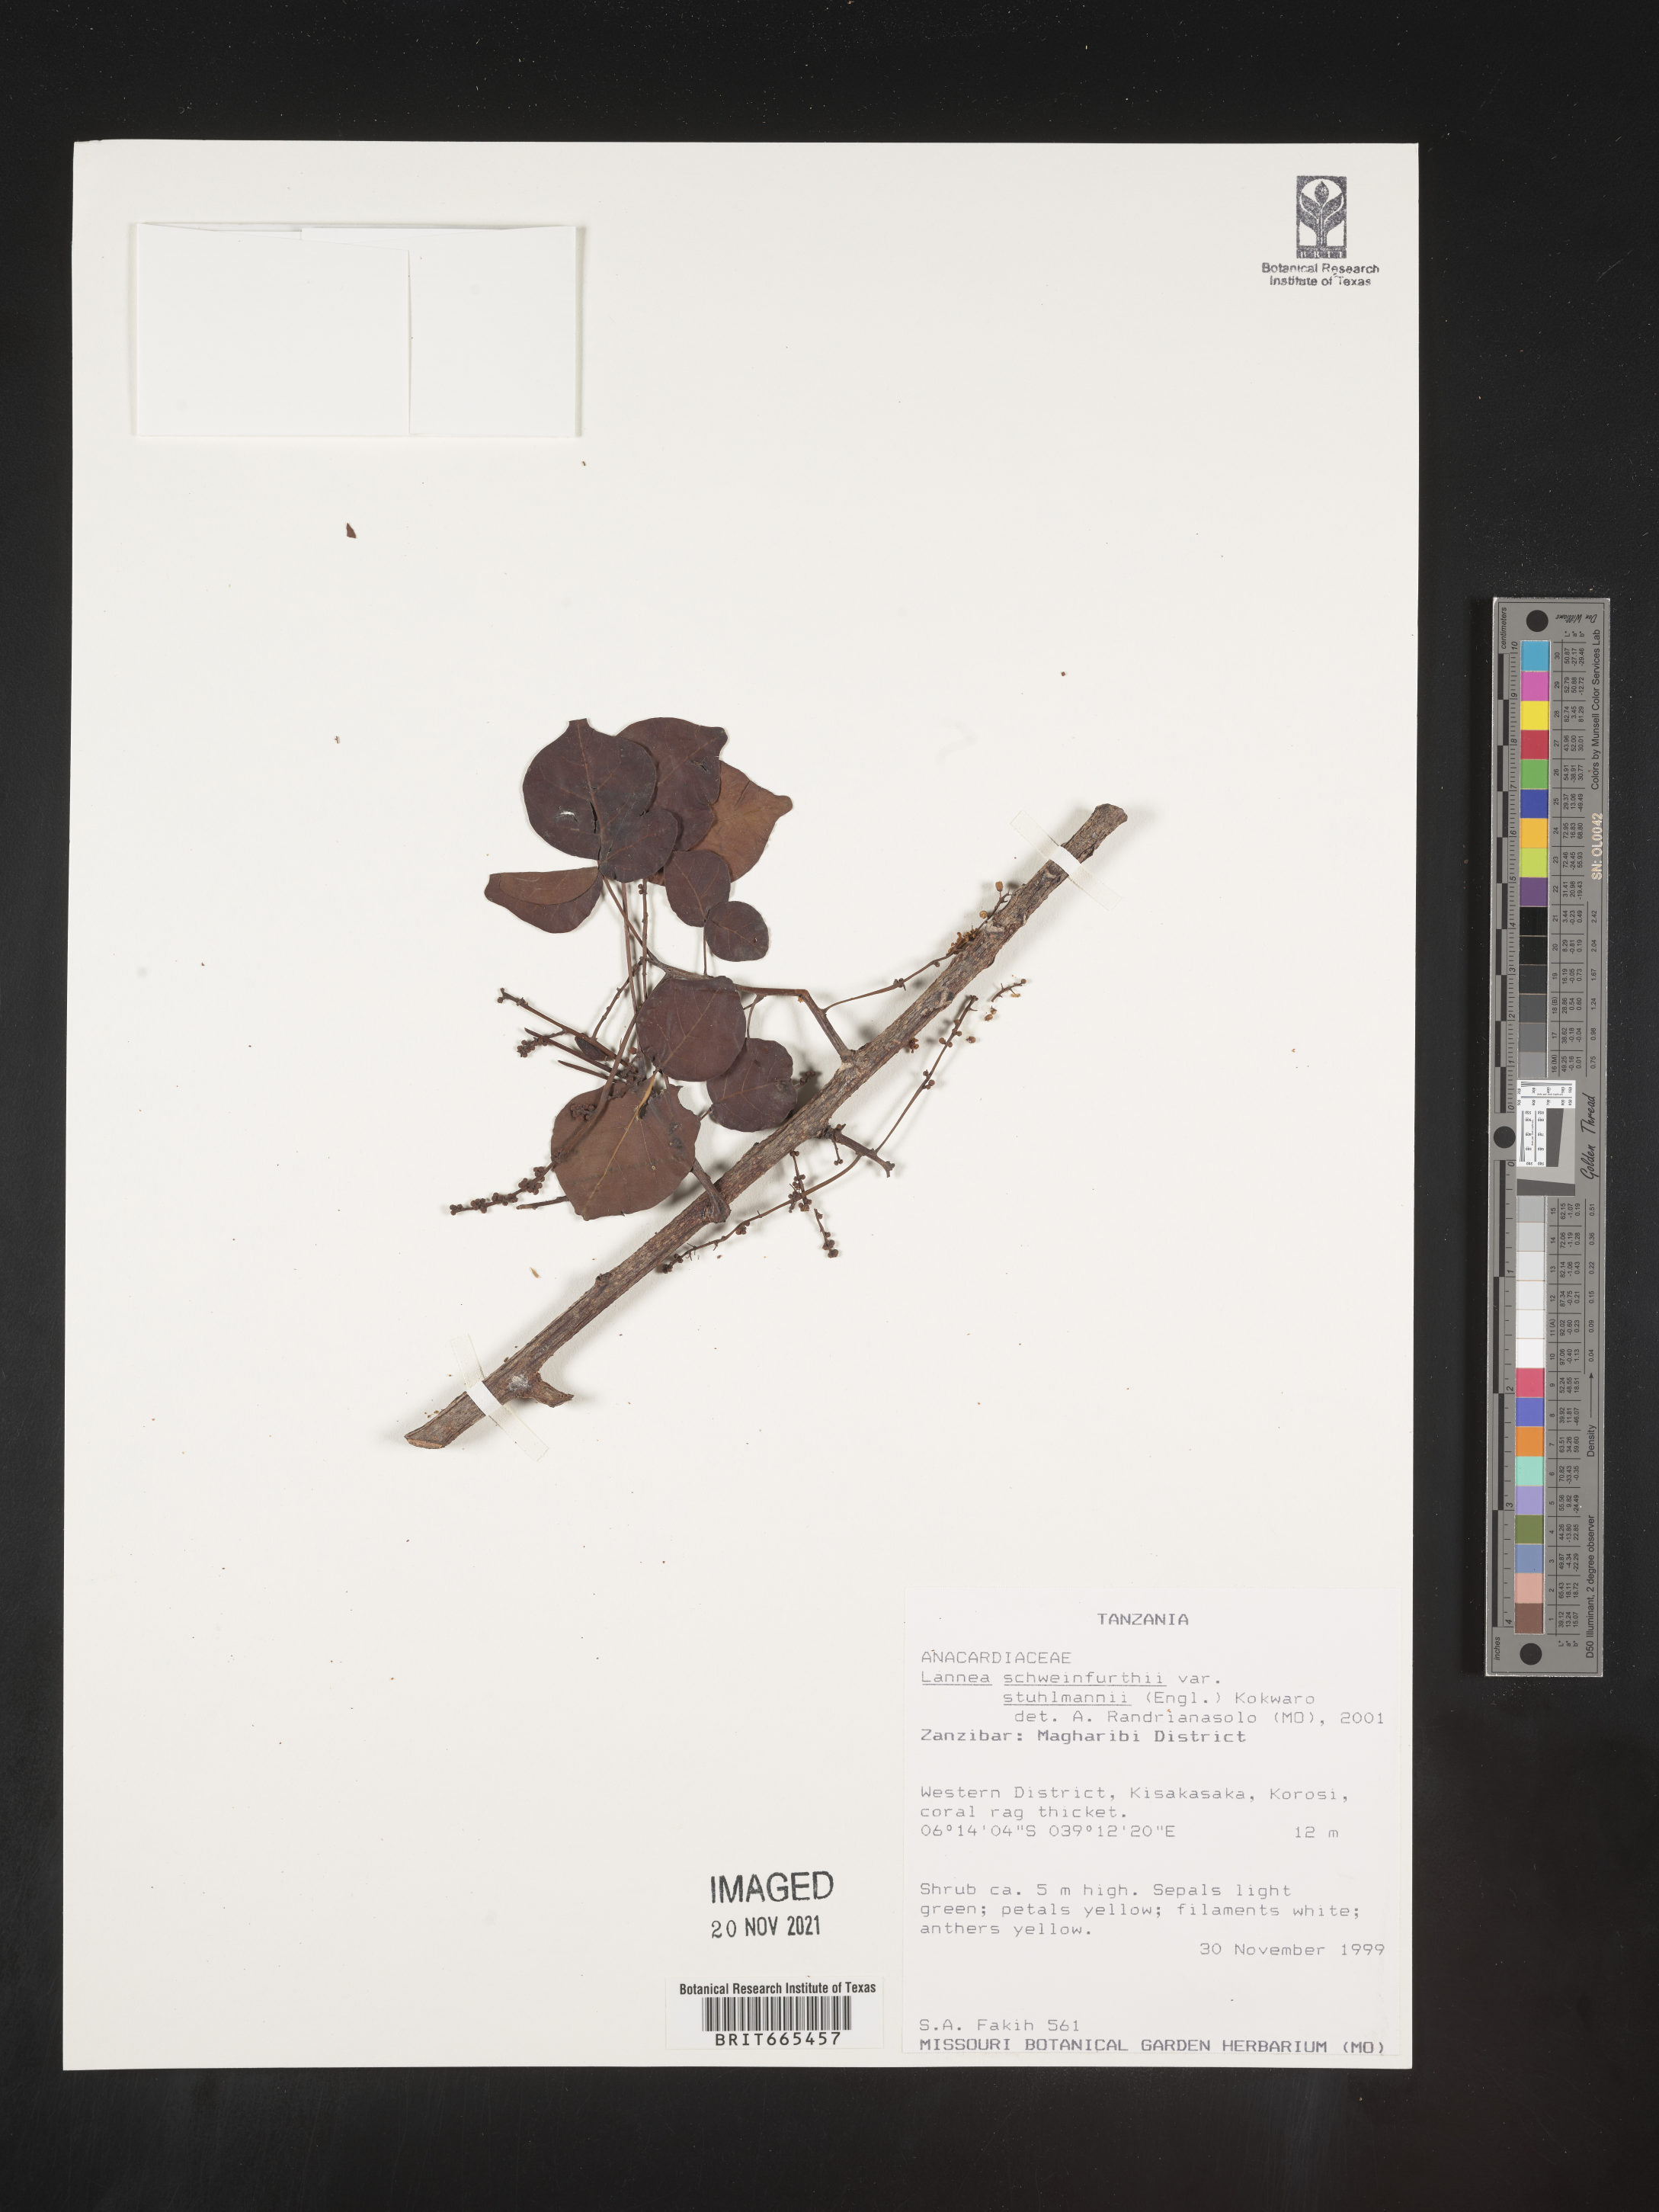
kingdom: Plantae
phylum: Tracheophyta
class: Magnoliopsida
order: Sapindales
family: Anacardiaceae
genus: Lannea
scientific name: Lannea schweinfurthii
